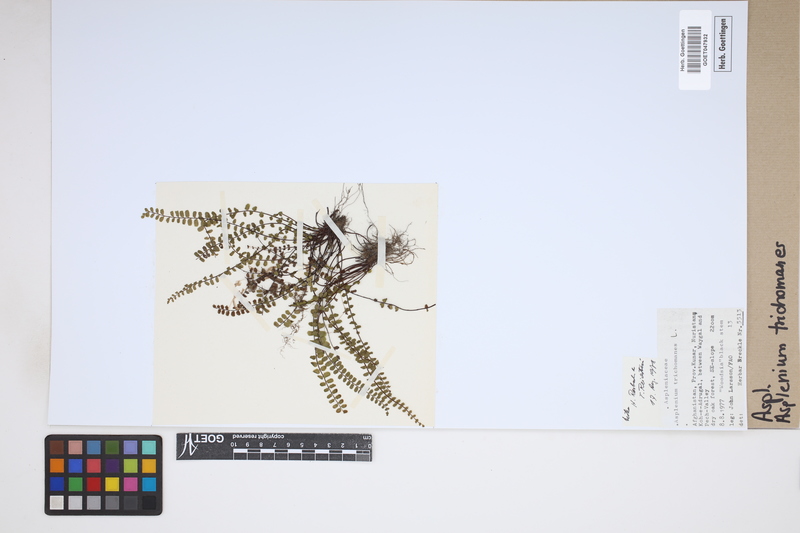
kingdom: Plantae
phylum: Tracheophyta
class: Polypodiopsida
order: Polypodiales
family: Aspleniaceae
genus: Asplenium
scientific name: Asplenium trichomanes
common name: Maidenhair spleenwort
